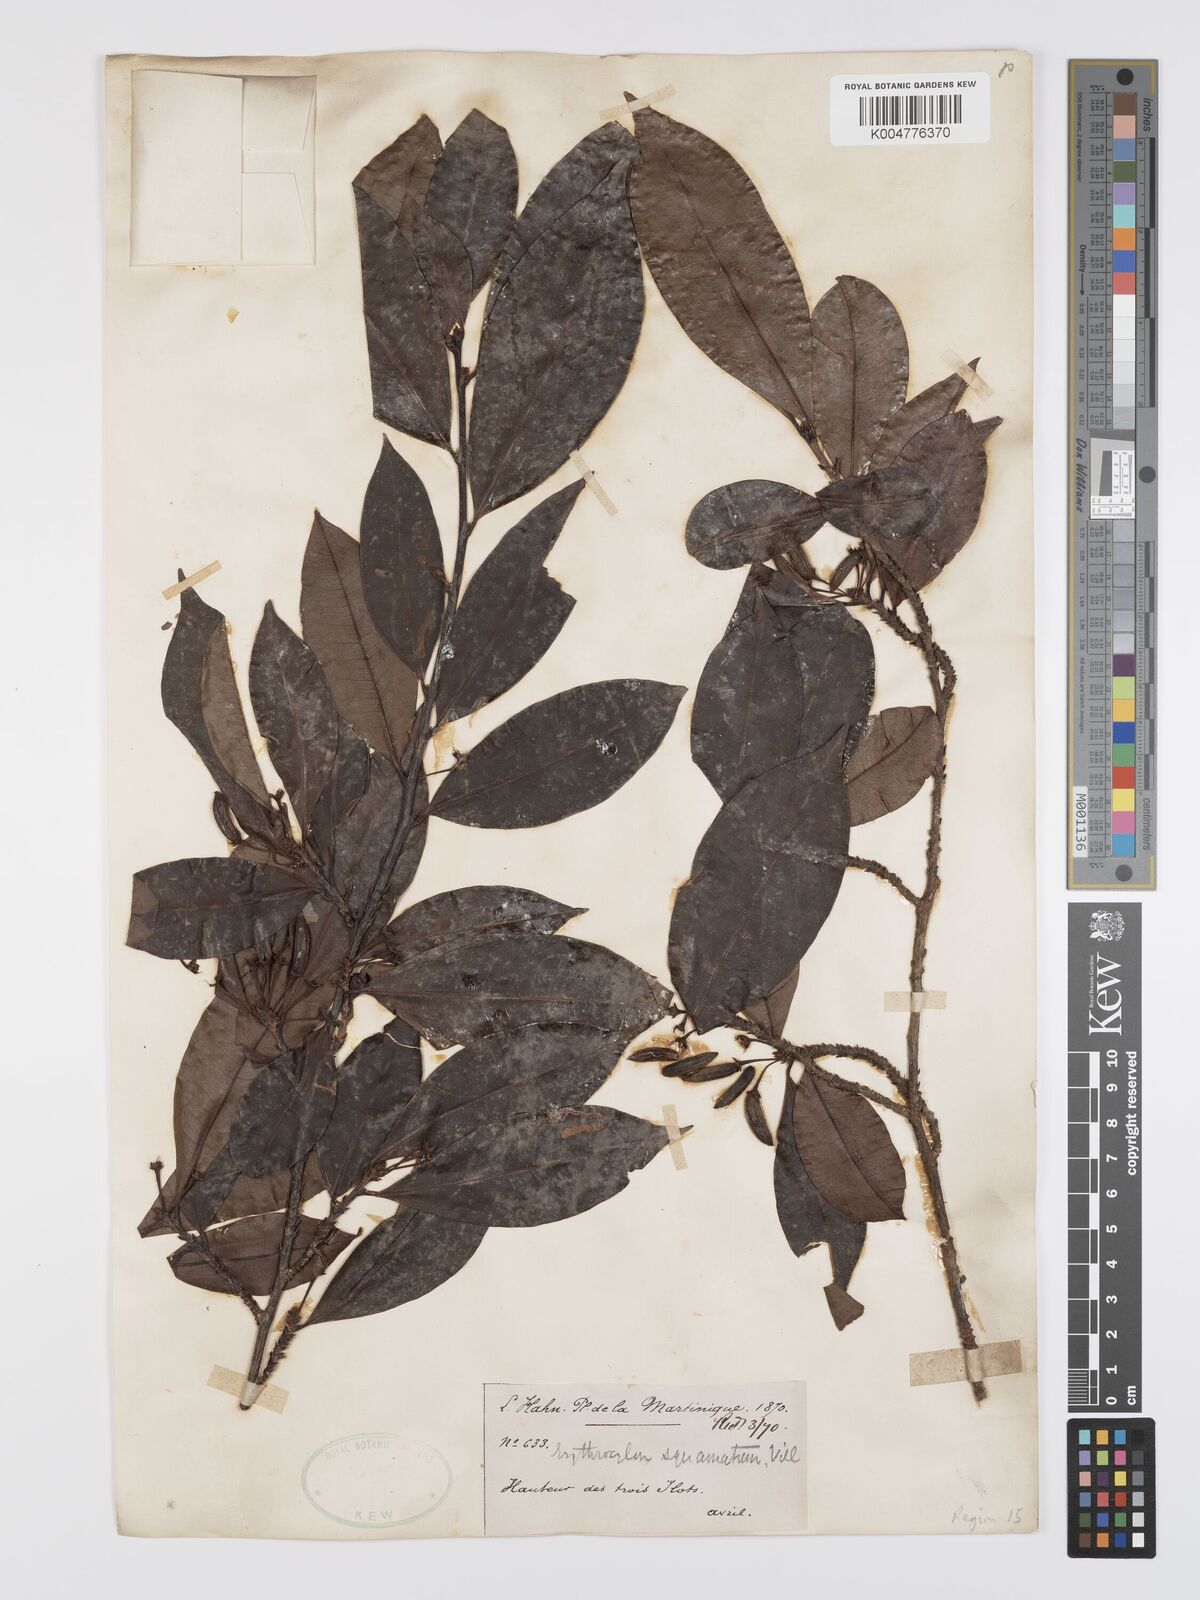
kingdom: Plantae
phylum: Tracheophyta
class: Magnoliopsida
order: Malpighiales
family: Erythroxylaceae
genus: Erythroxylum
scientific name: Erythroxylum squamatum
